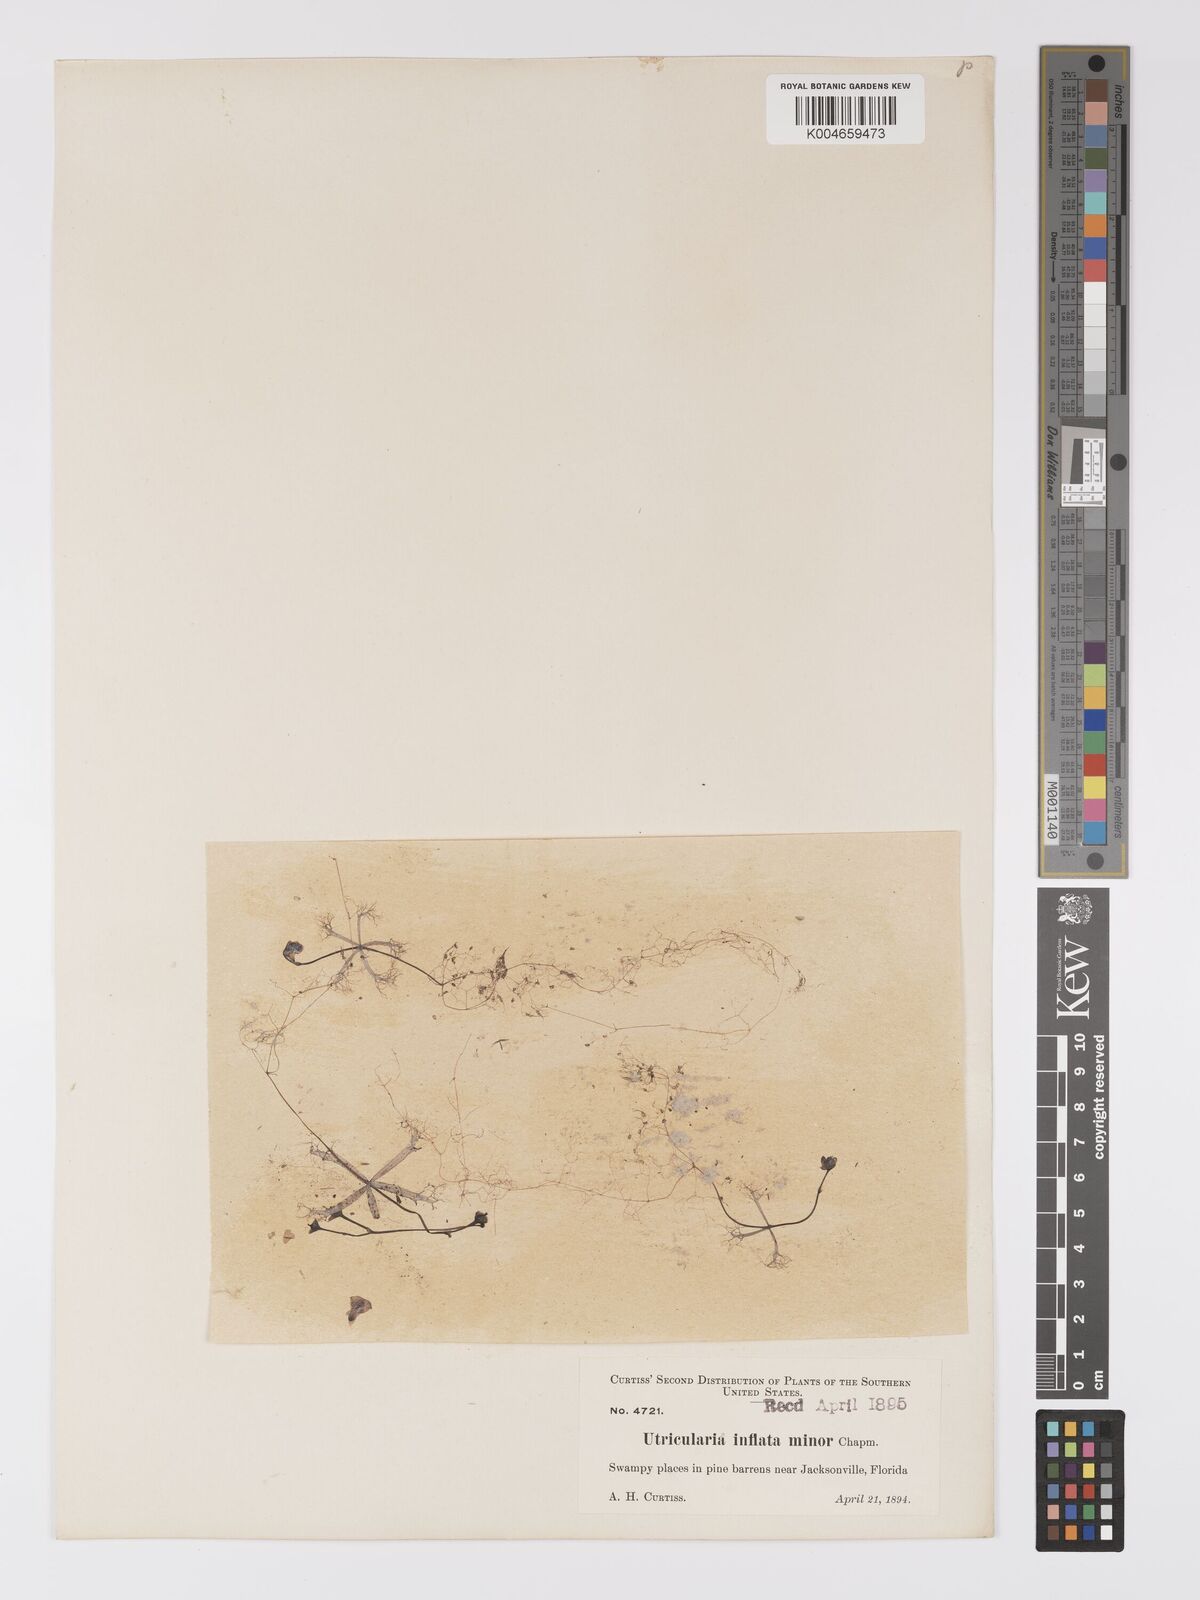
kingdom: Plantae
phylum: Tracheophyta
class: Magnoliopsida
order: Lamiales
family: Lentibulariaceae
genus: Utricularia
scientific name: Utricularia radiata
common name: Floating bladderwort
